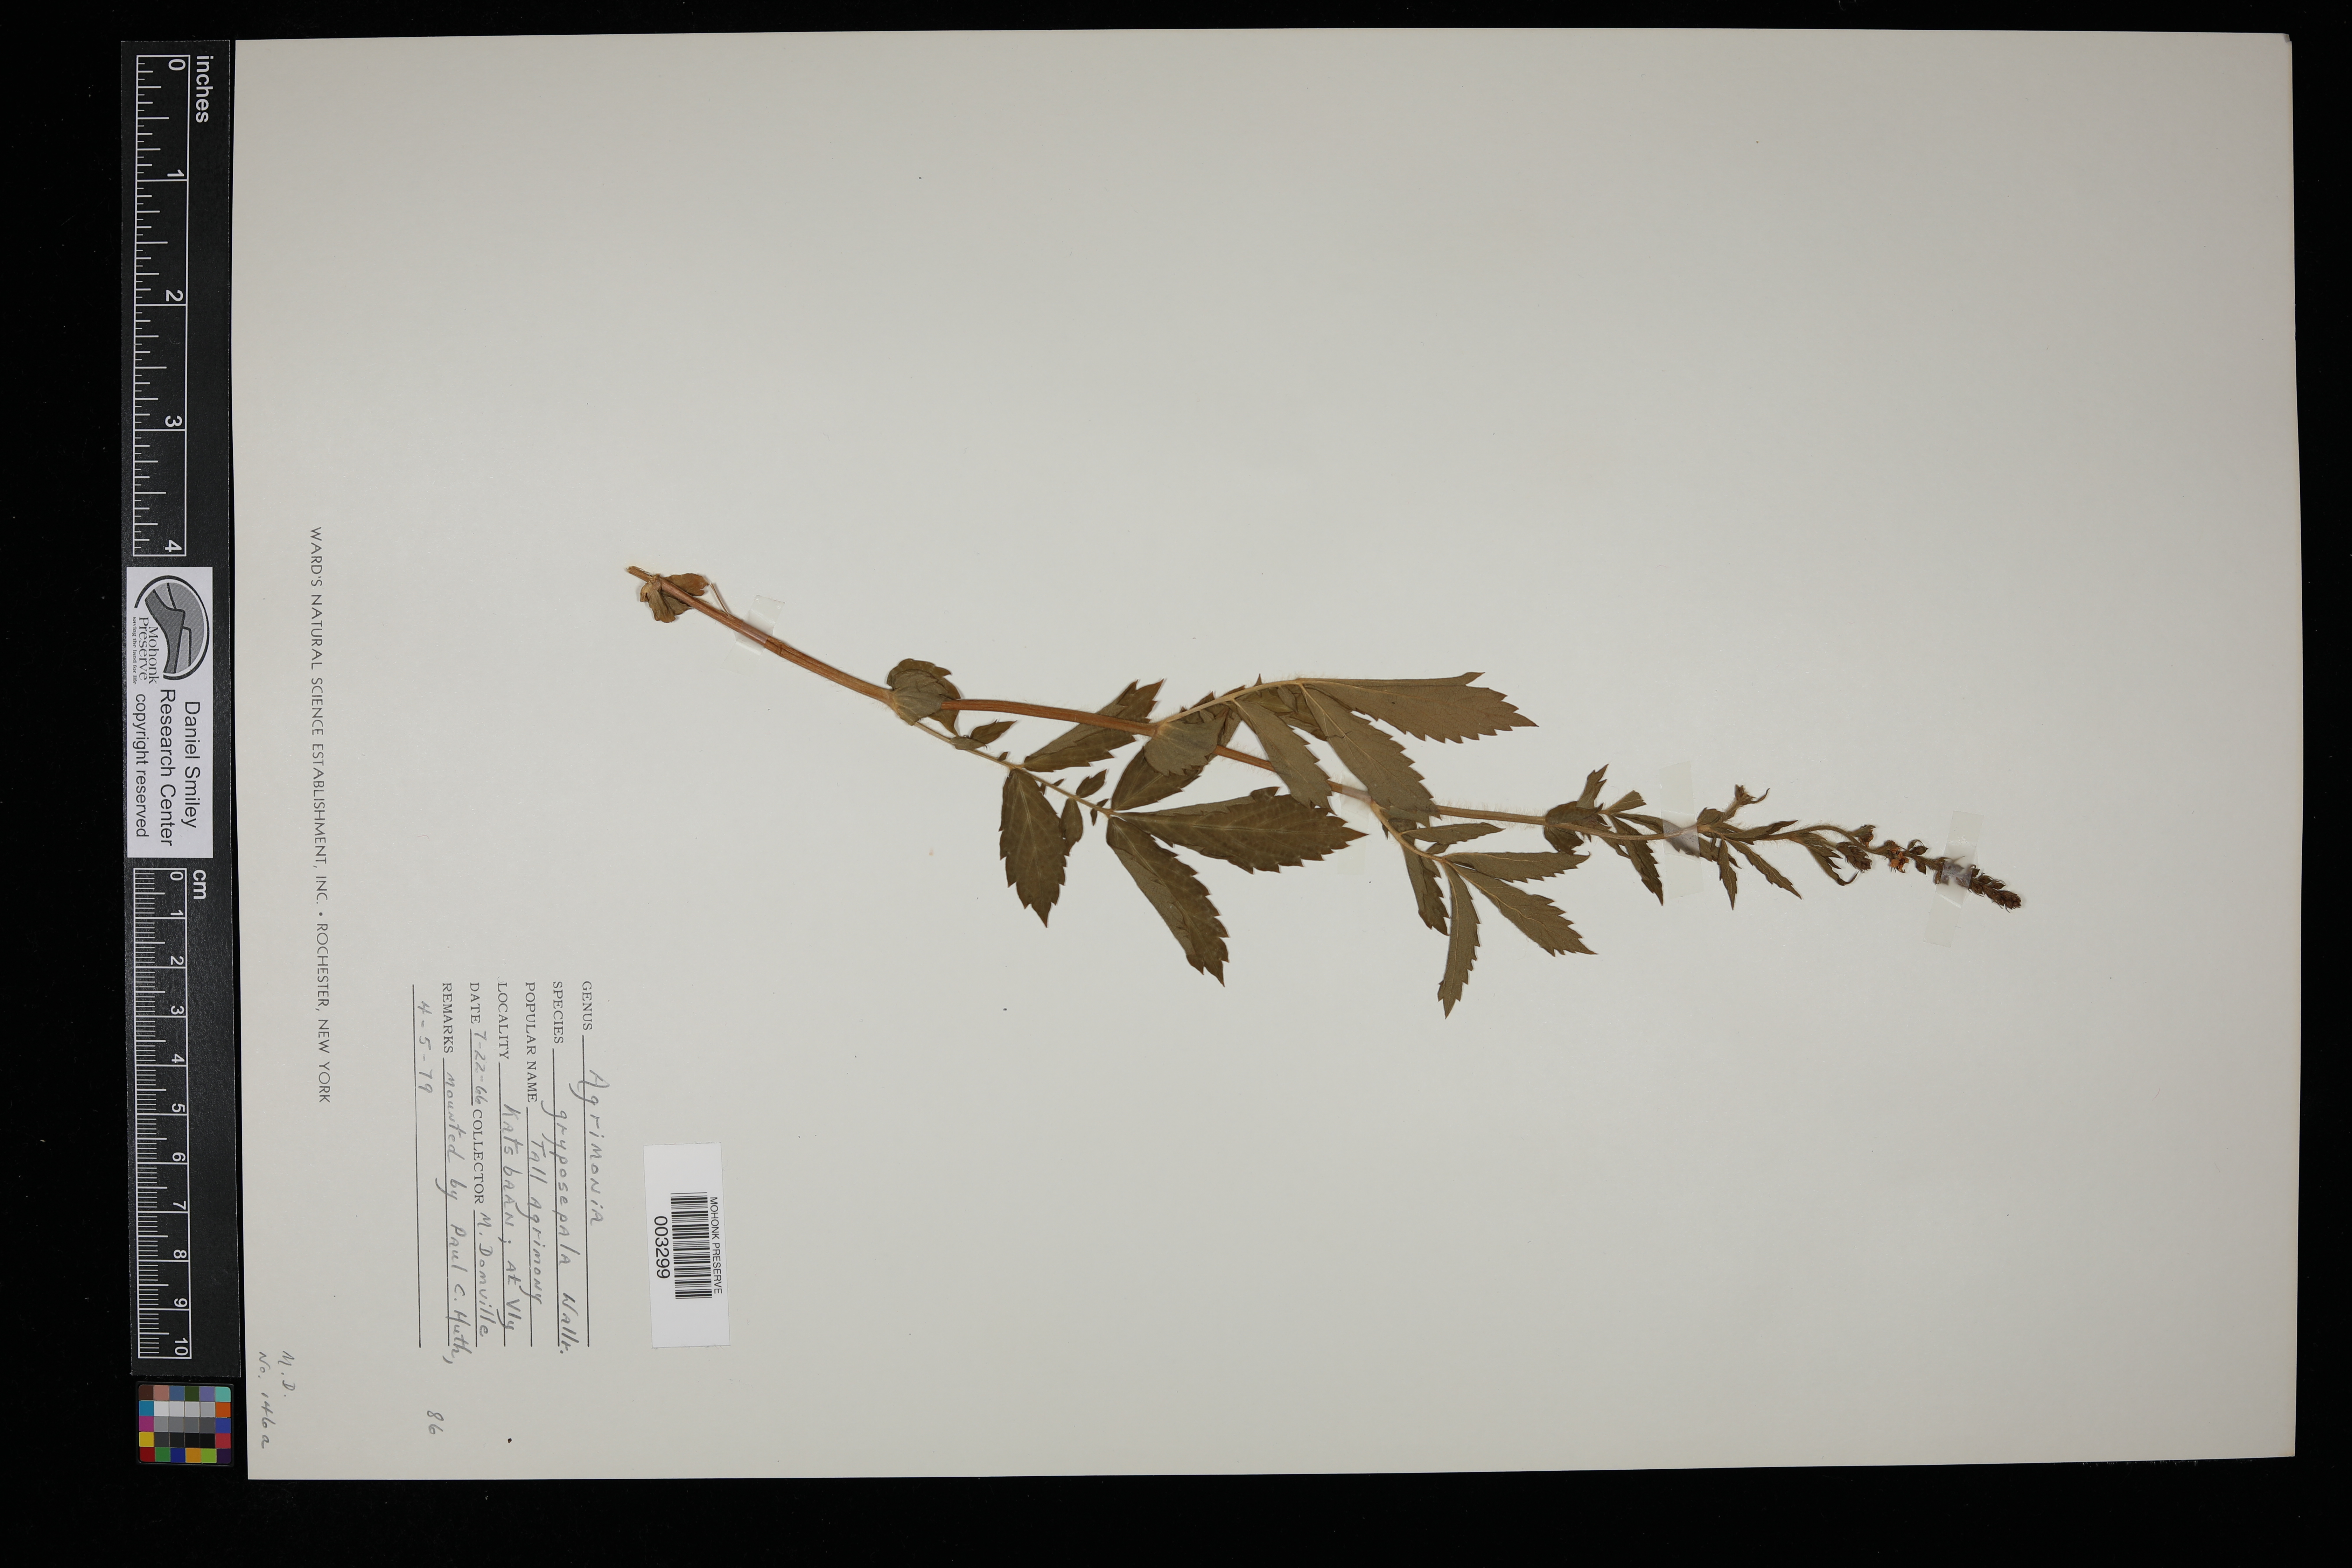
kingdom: Plantae
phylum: Tracheophyta
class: Magnoliopsida
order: Rosales
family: Rosaceae
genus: Agrimonia
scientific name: Agrimonia gryposepala
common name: Common agrimony
